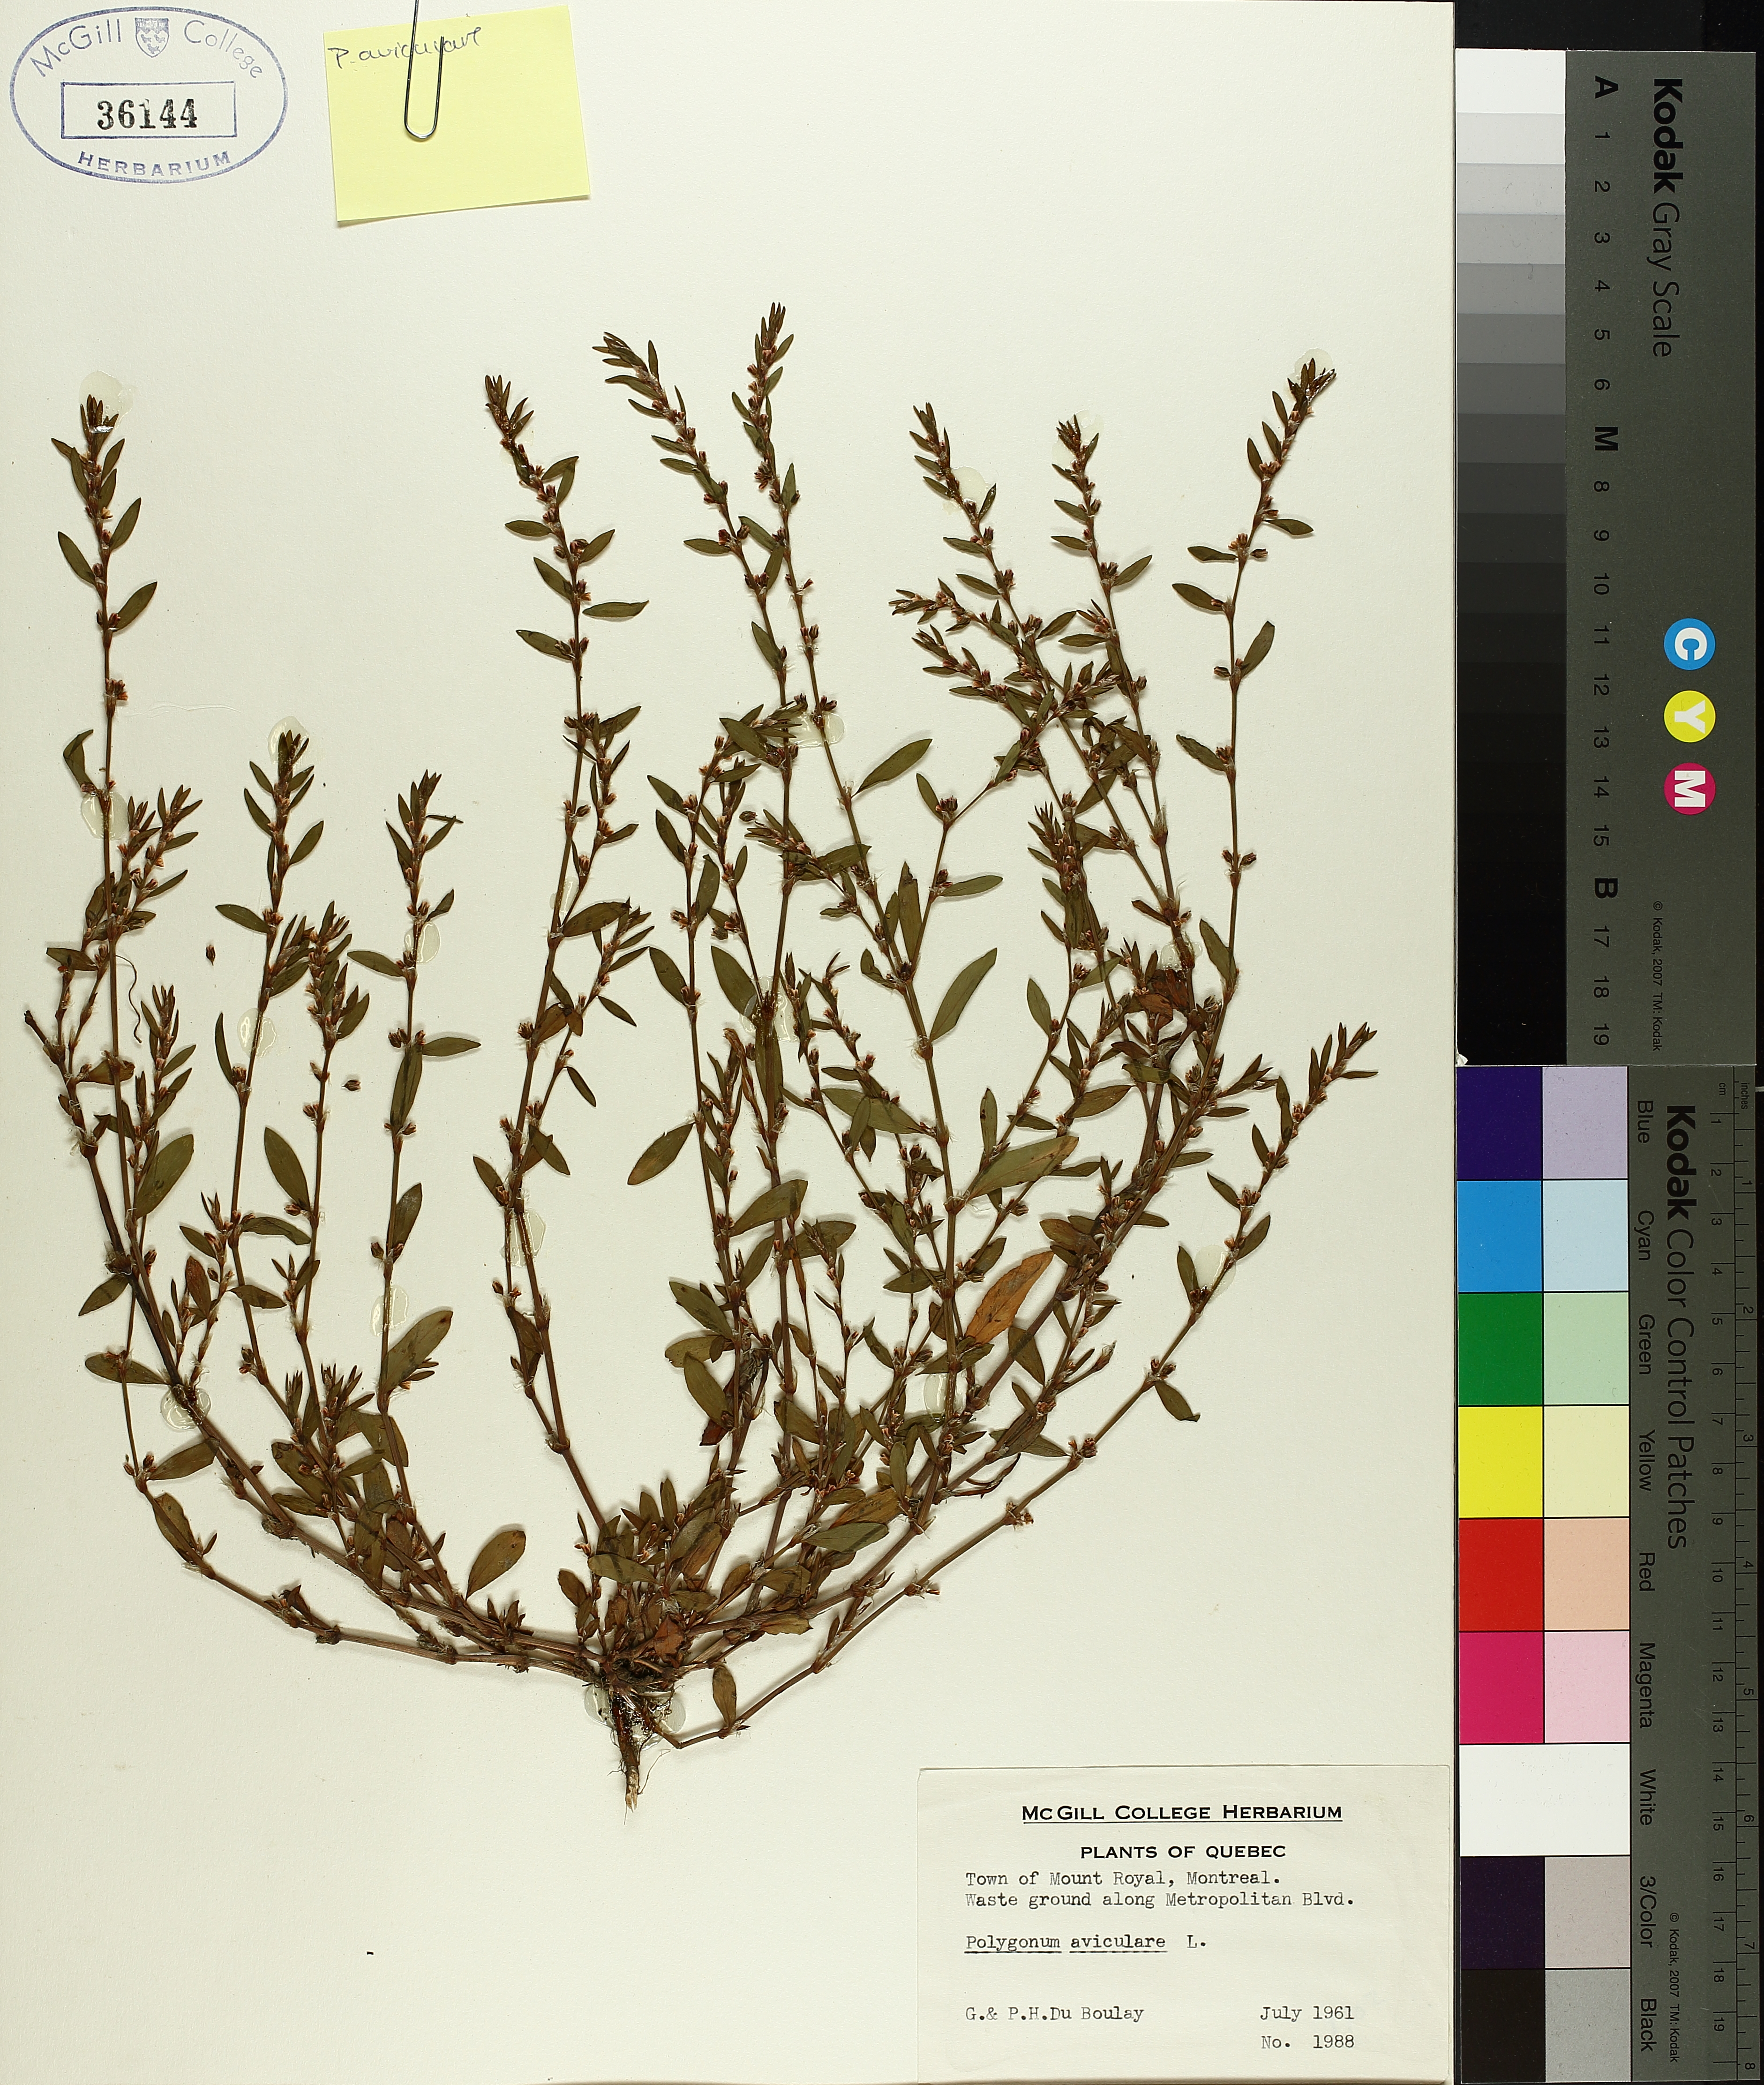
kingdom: Plantae
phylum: Tracheophyta
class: Magnoliopsida
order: Caryophyllales
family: Polygonaceae
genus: Polygonum
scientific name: Polygonum aviculare
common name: Prostrate knotweed
